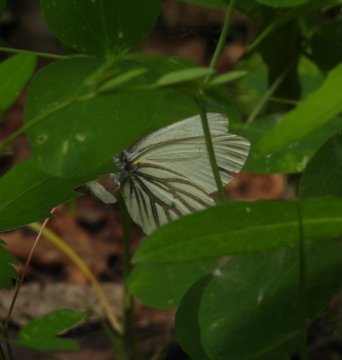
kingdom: Animalia
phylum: Arthropoda
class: Insecta
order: Lepidoptera
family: Pieridae
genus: Pieris
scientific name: Pieris oleracea
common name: Mustard White
